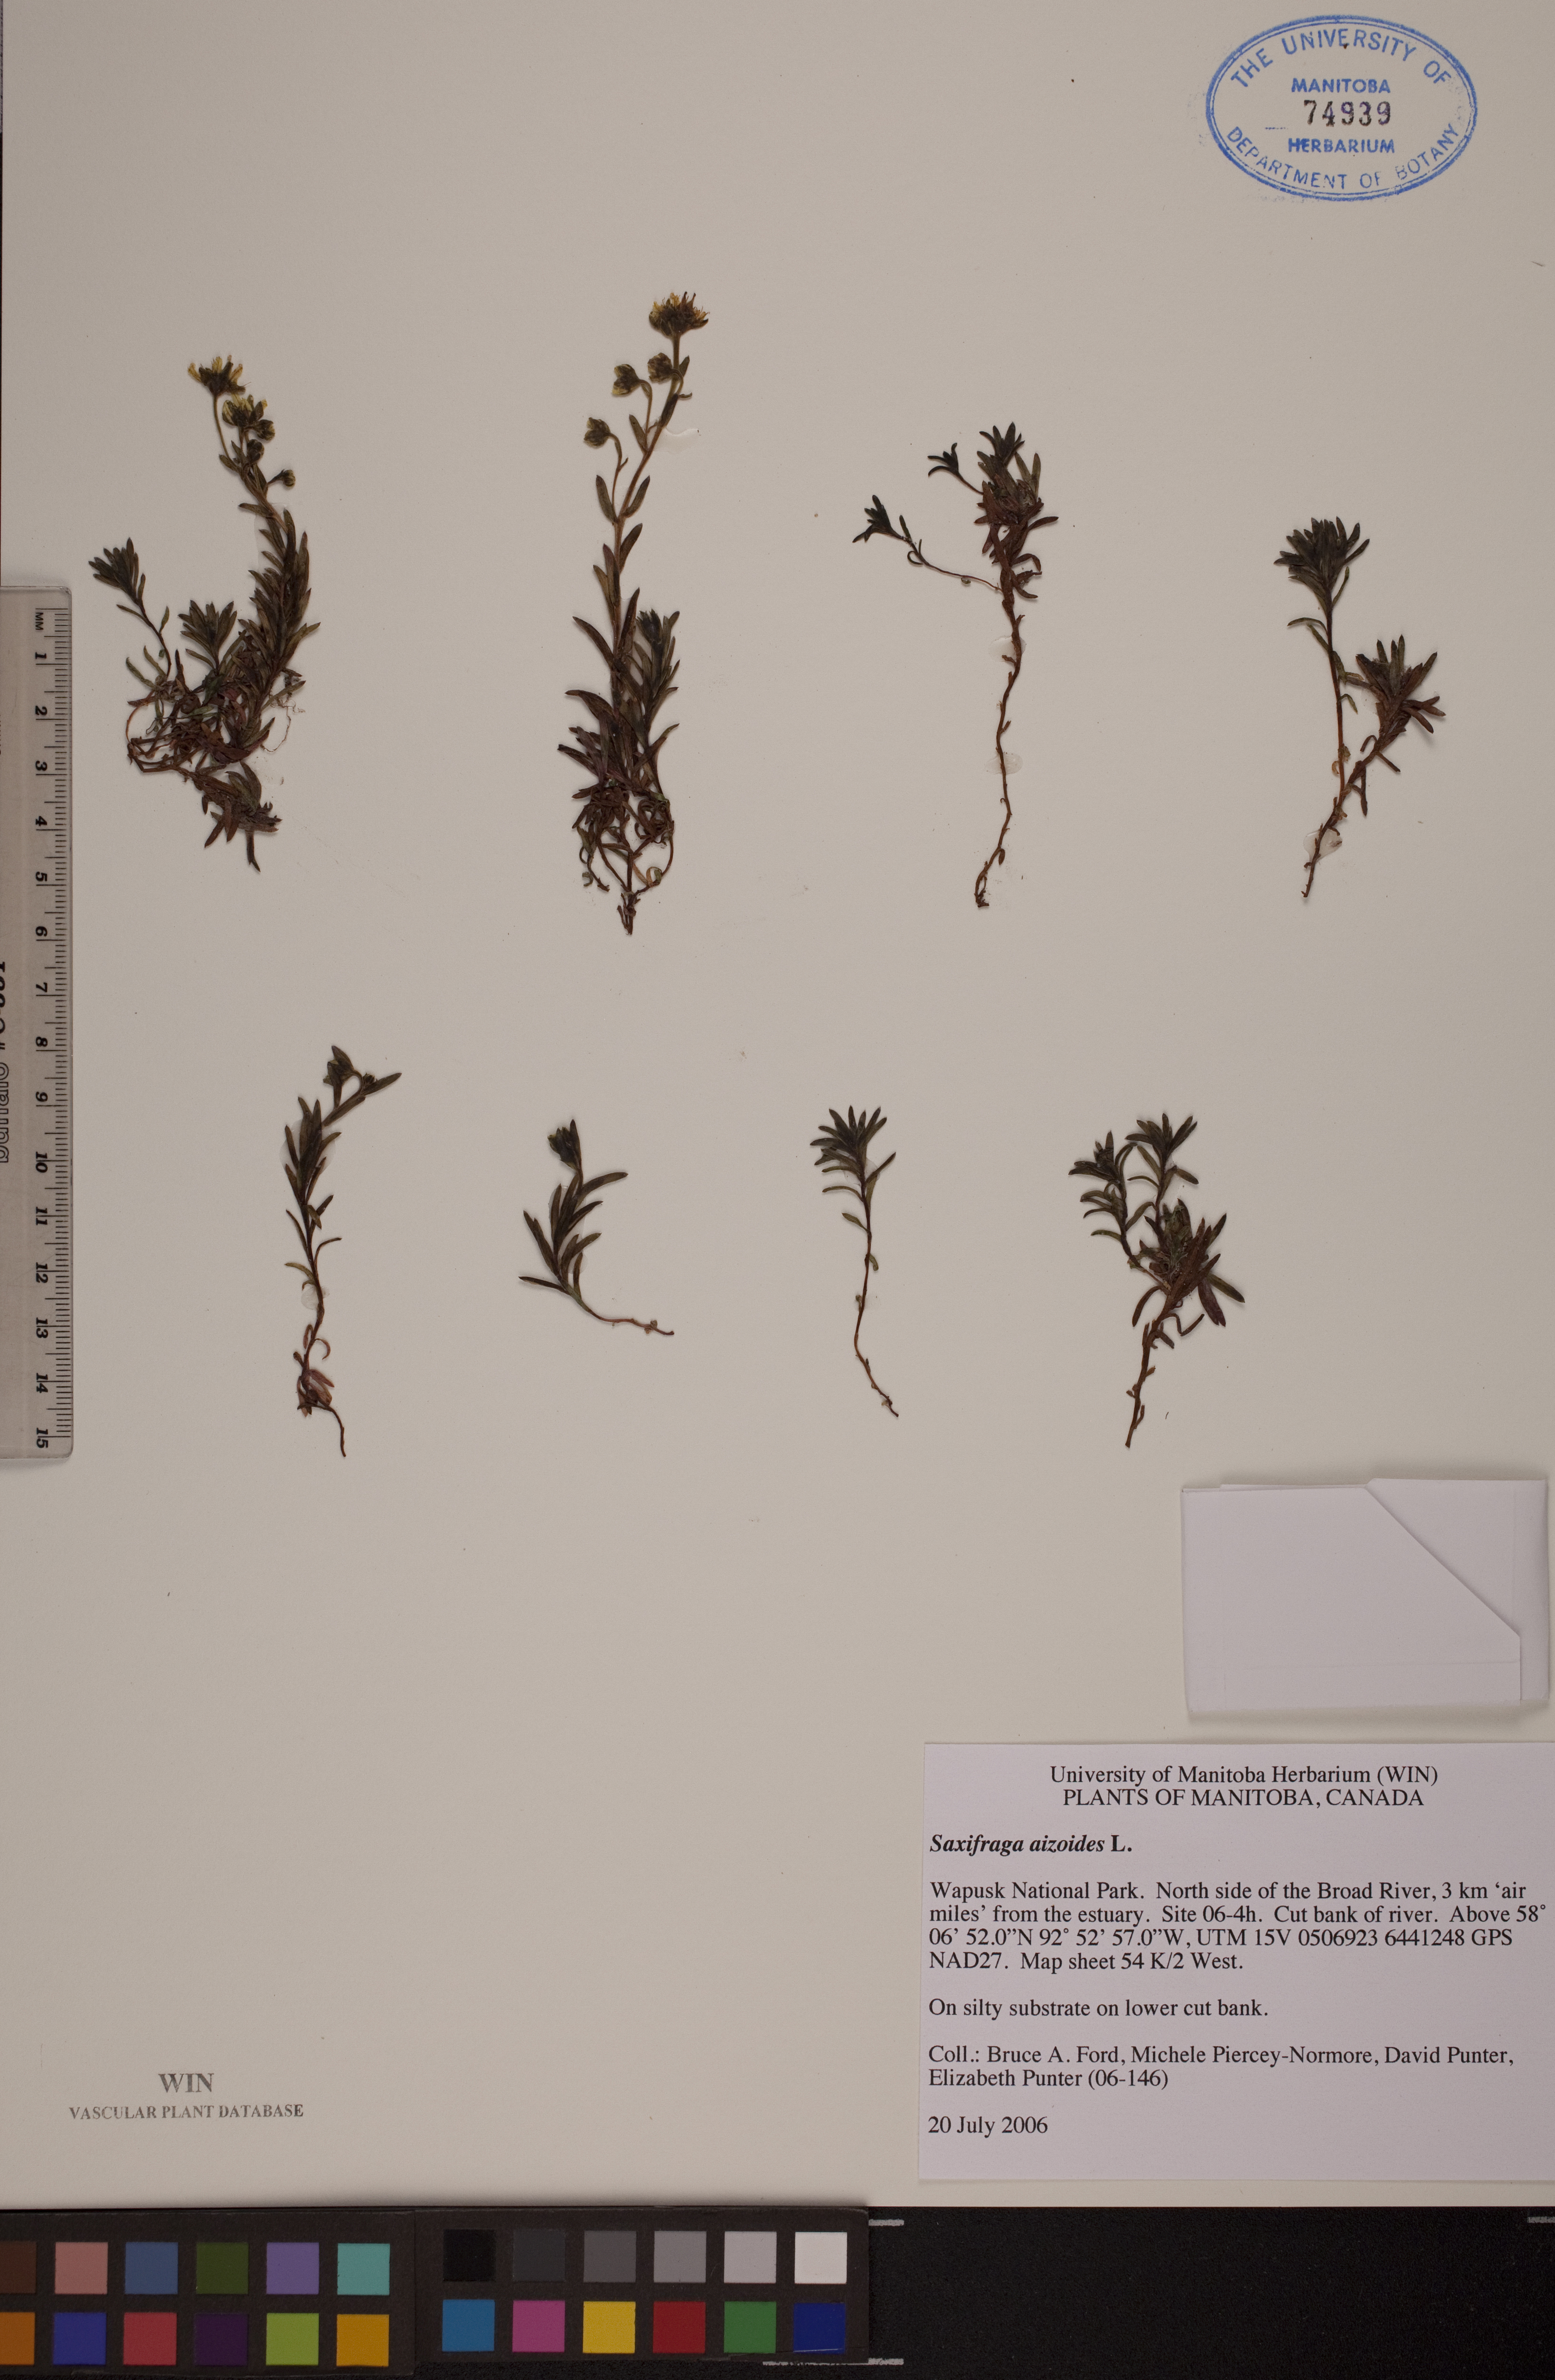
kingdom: Plantae
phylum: Tracheophyta
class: Magnoliopsida
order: Saxifragales
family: Saxifragaceae
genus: Saxifraga
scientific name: Saxifraga aizoides
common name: Yellow mountain saxifrage
